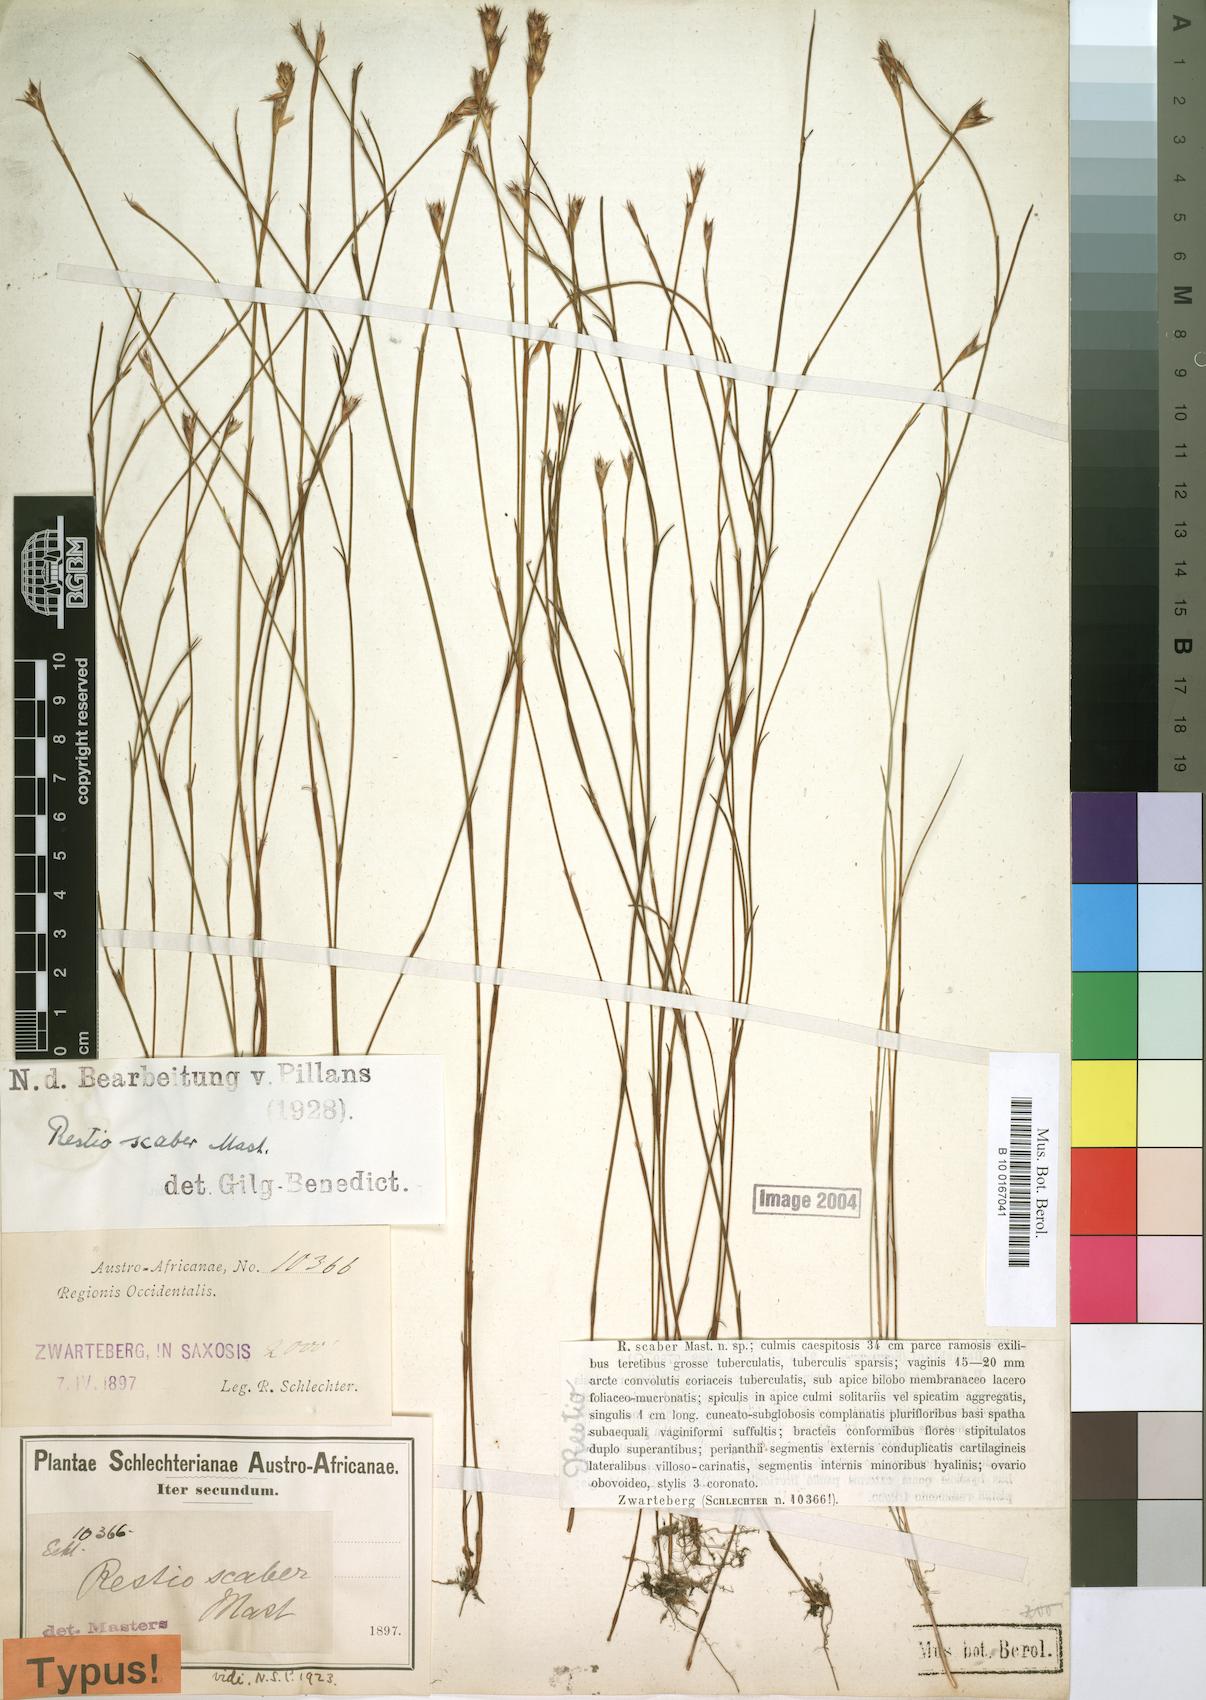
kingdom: Plantae
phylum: Tracheophyta
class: Liliopsida
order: Poales
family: Restionaceae
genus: Restio
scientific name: Restio scaber
